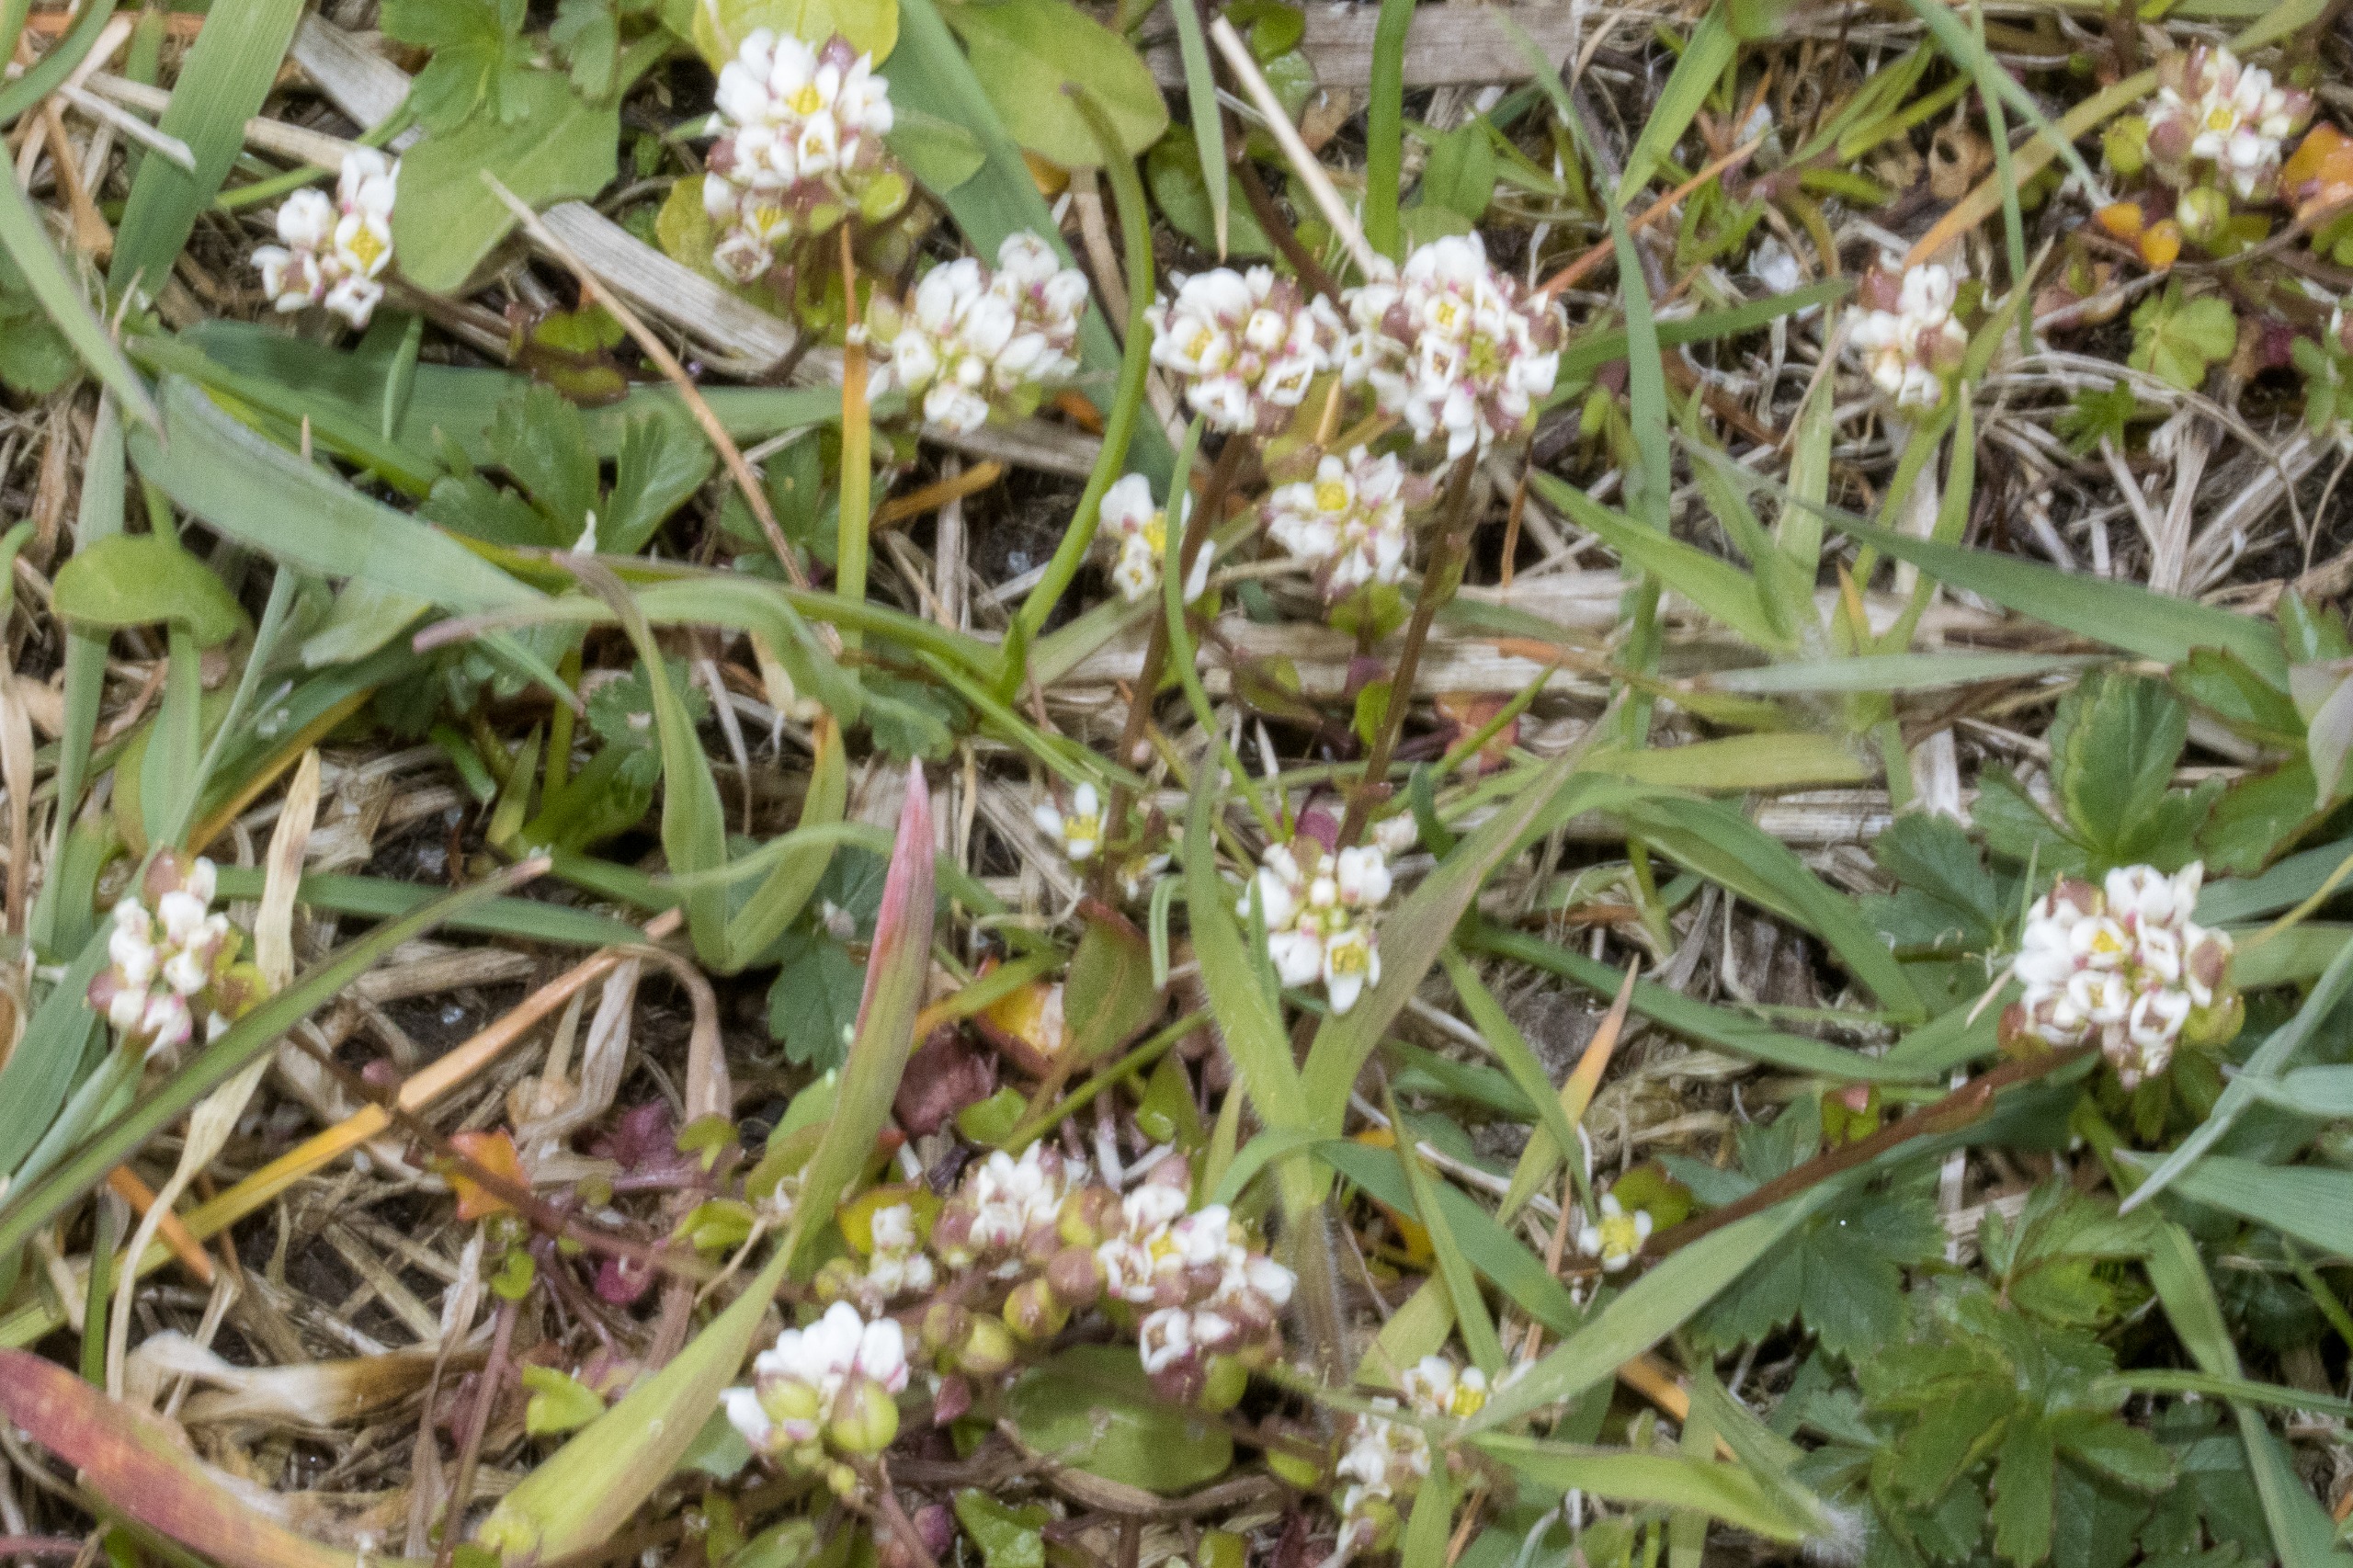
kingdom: Plantae
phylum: Tracheophyta
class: Magnoliopsida
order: Brassicales
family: Brassicaceae
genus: Cochlearia
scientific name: Cochlearia danica
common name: Dansk kokleare
